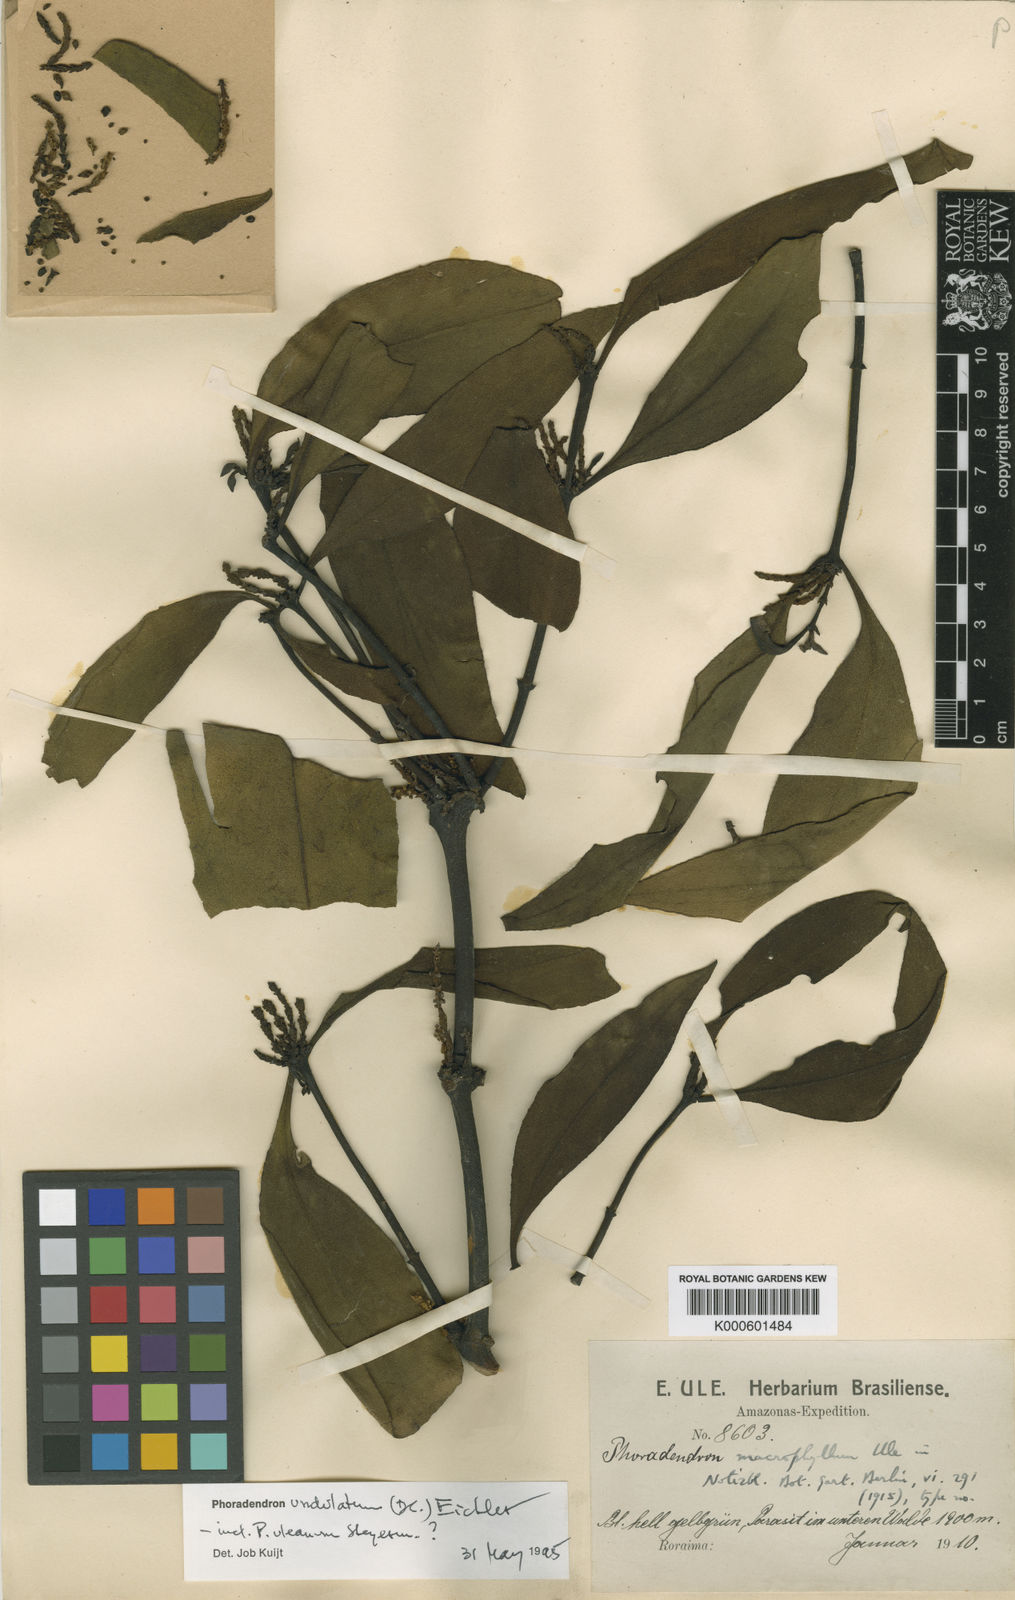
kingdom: Plantae
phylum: Tracheophyta
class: Magnoliopsida
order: Santalales
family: Viscaceae
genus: Phoradendron
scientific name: Phoradendron undulatum
